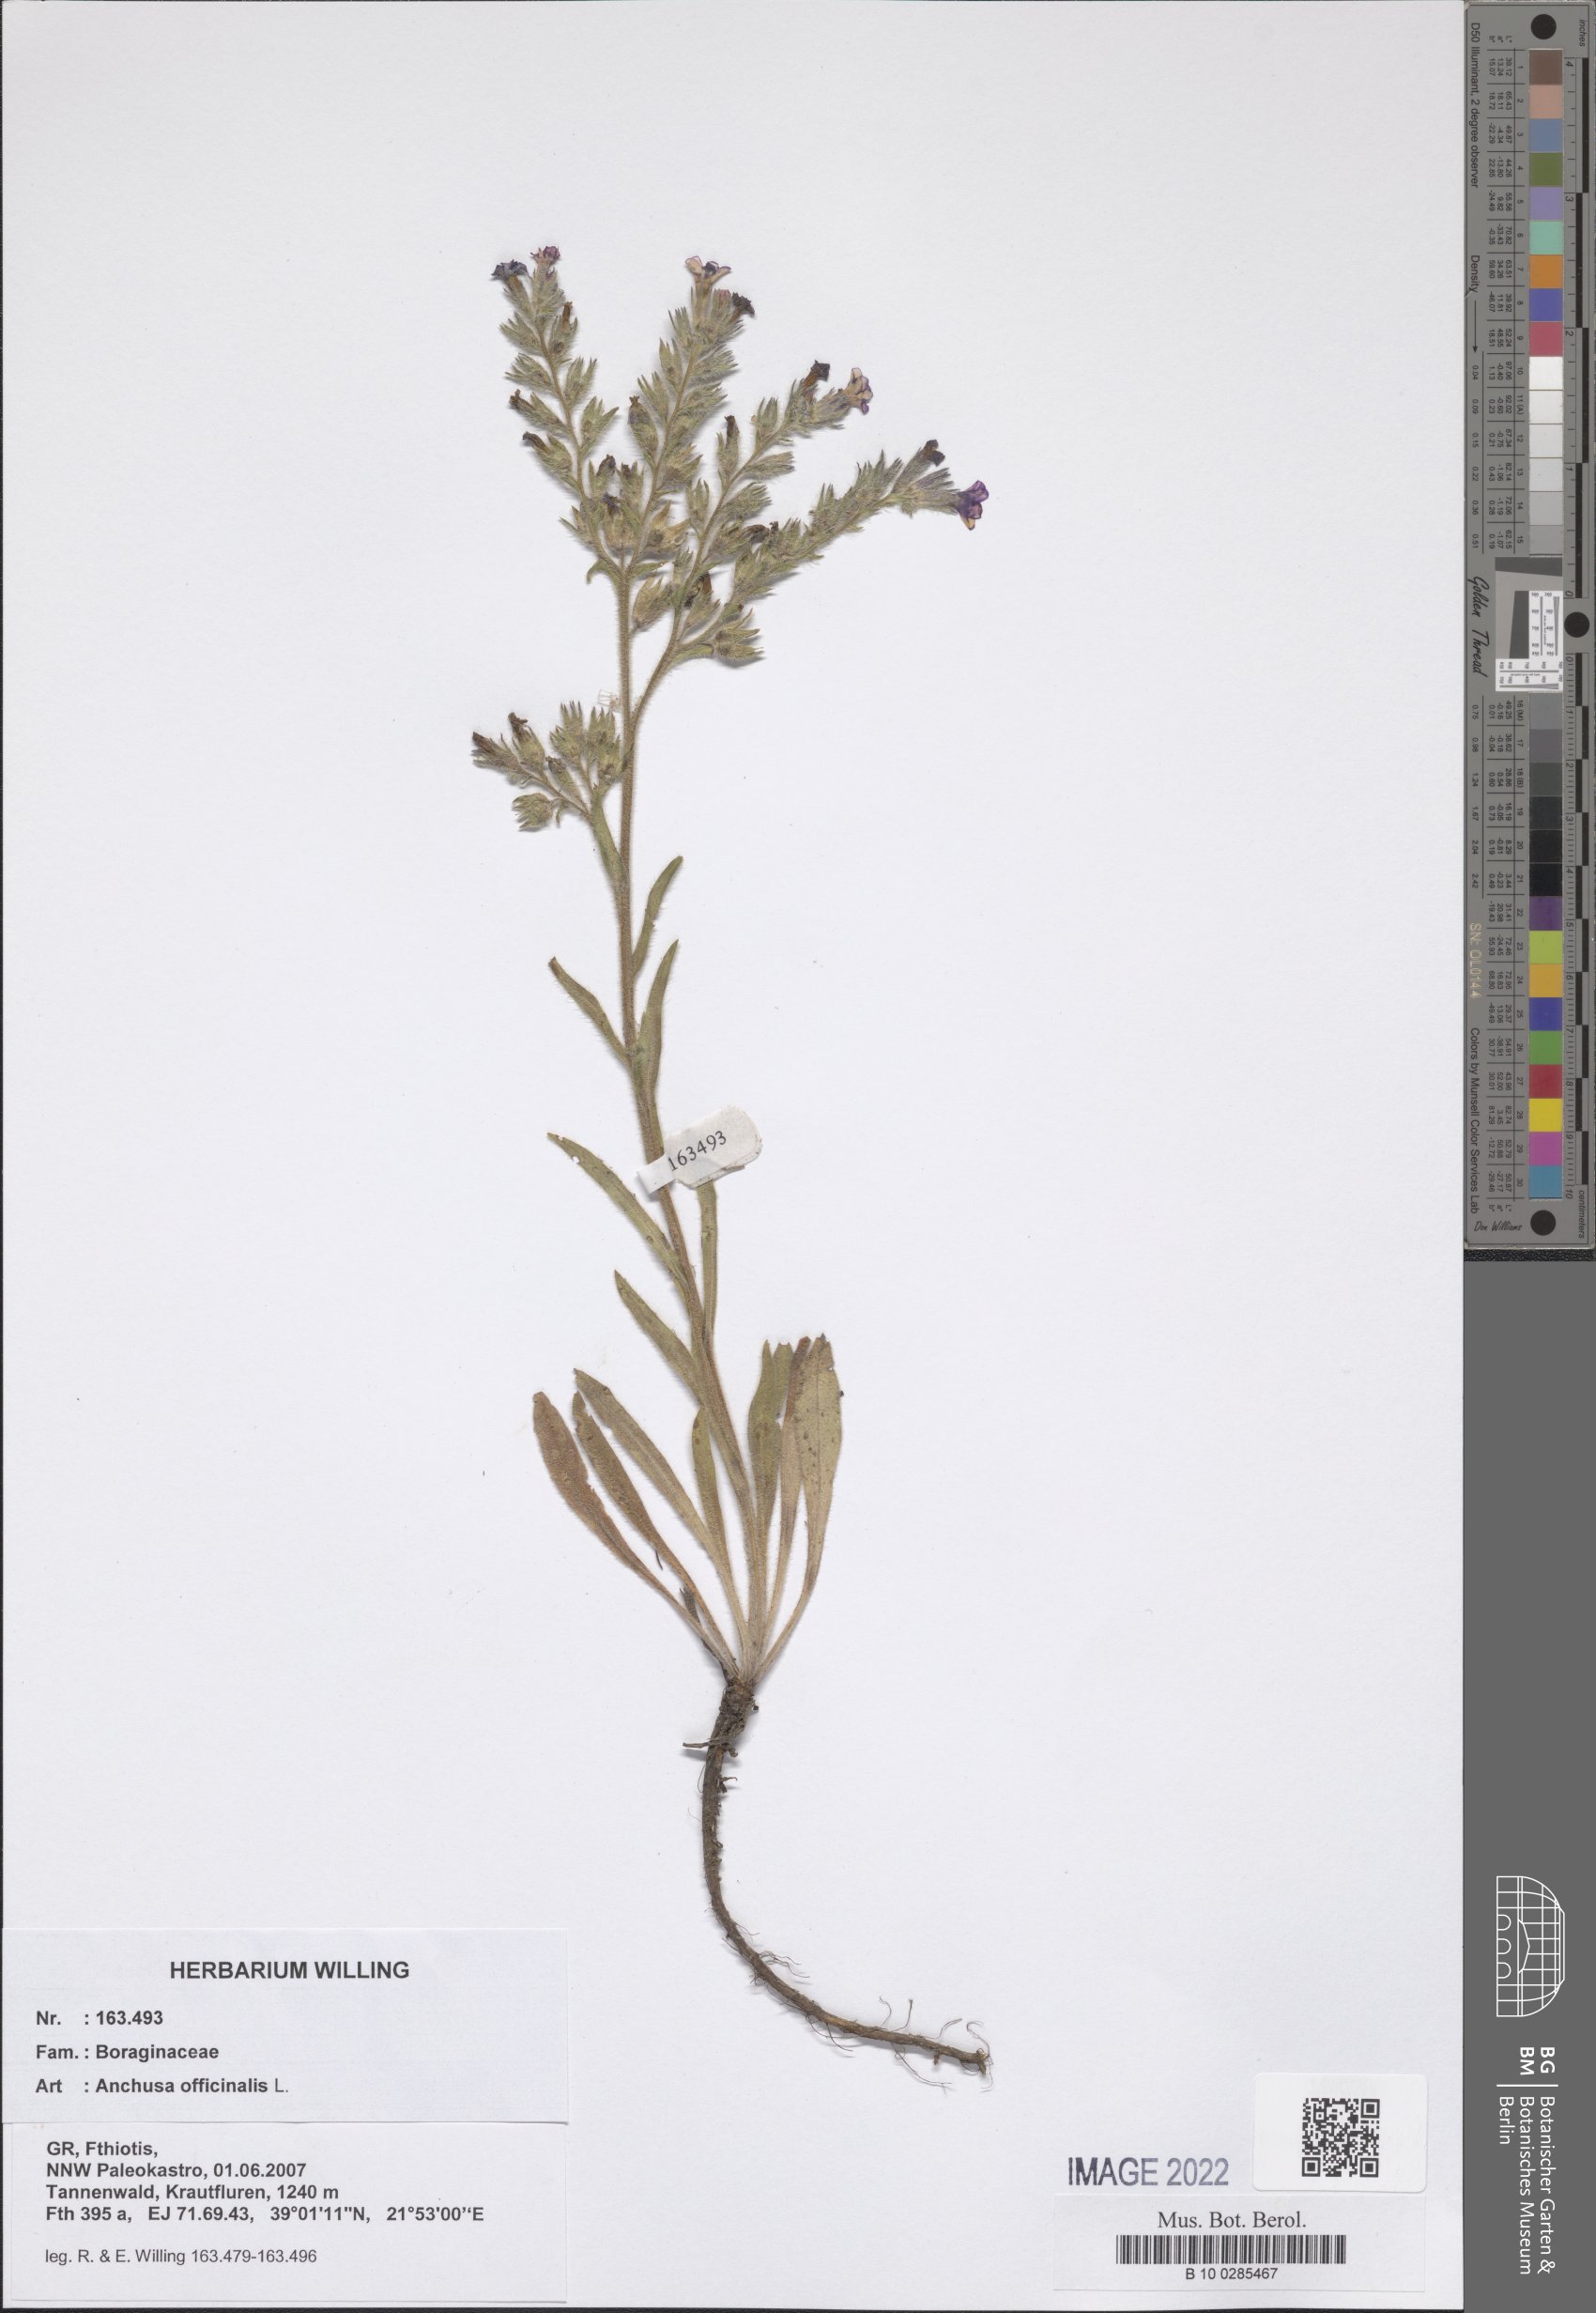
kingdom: Plantae
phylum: Tracheophyta
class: Magnoliopsida
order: Boraginales
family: Boraginaceae
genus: Anchusa
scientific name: Anchusa officinalis
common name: Alkanet
